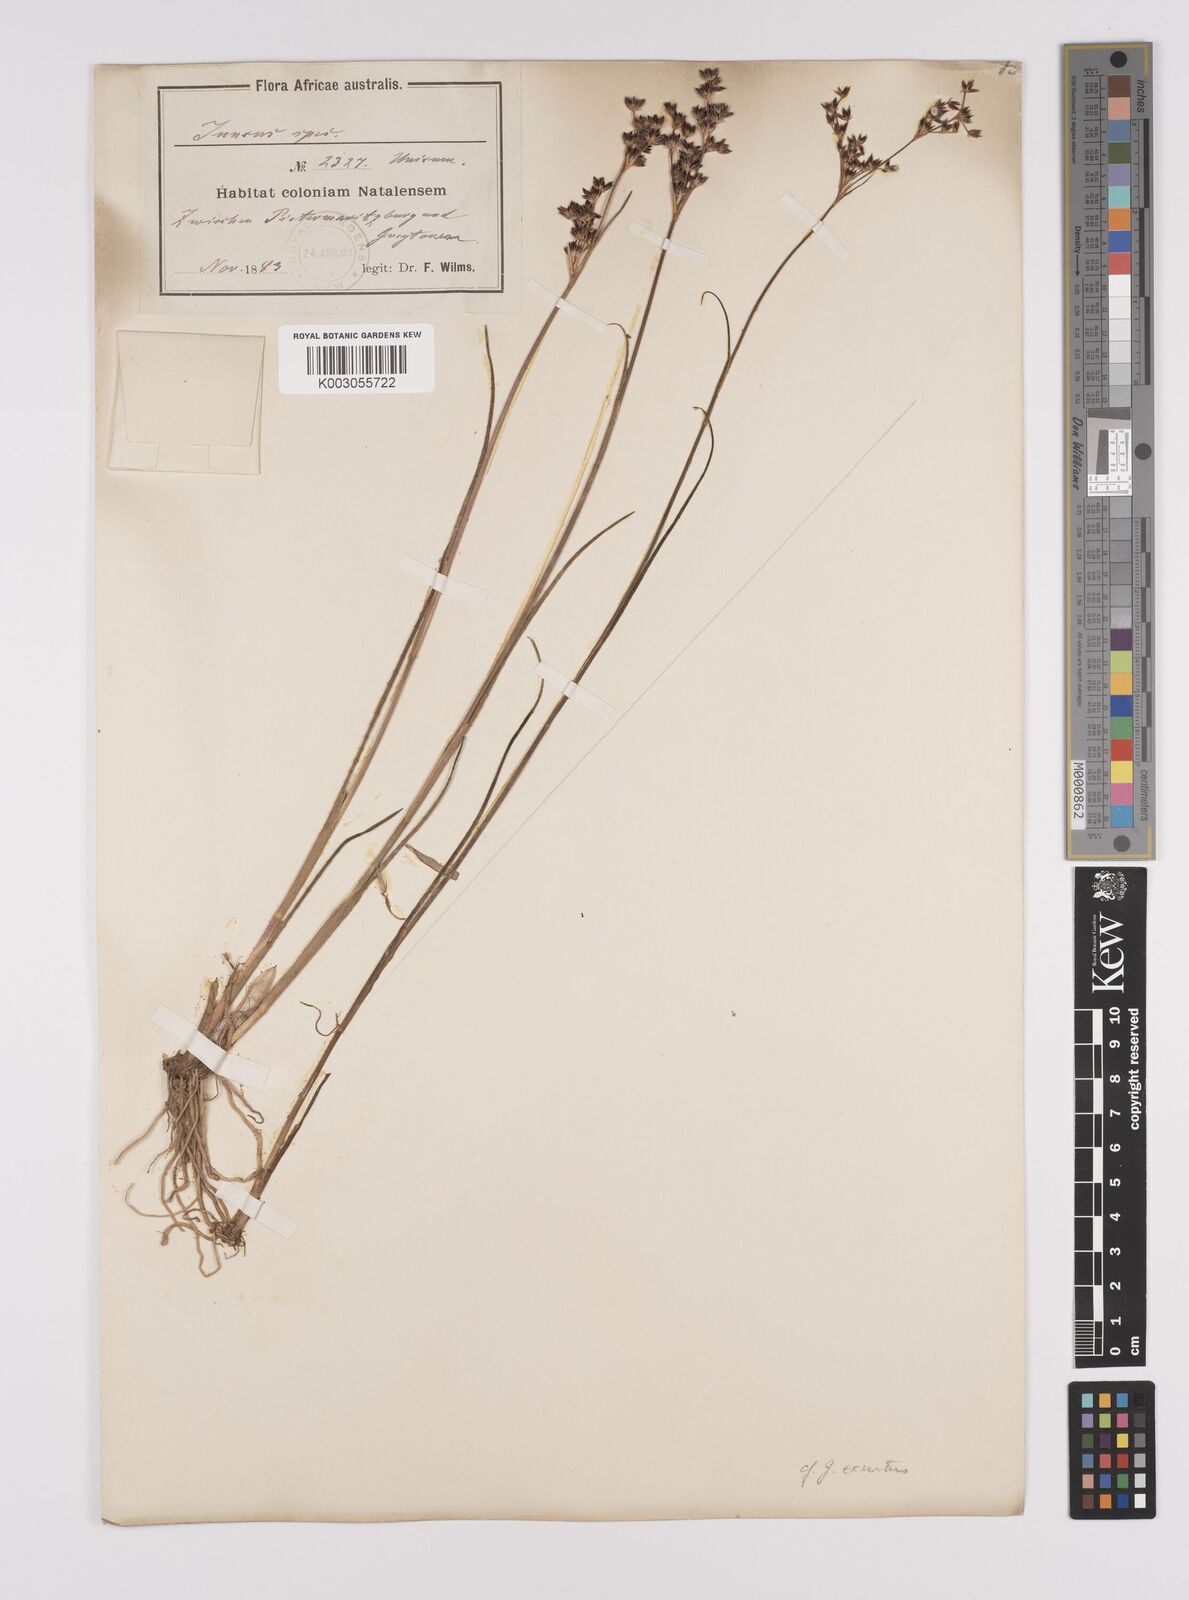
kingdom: Plantae
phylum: Tracheophyta
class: Liliopsida
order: Poales
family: Juncaceae
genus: Juncus
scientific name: Juncus exsertus
